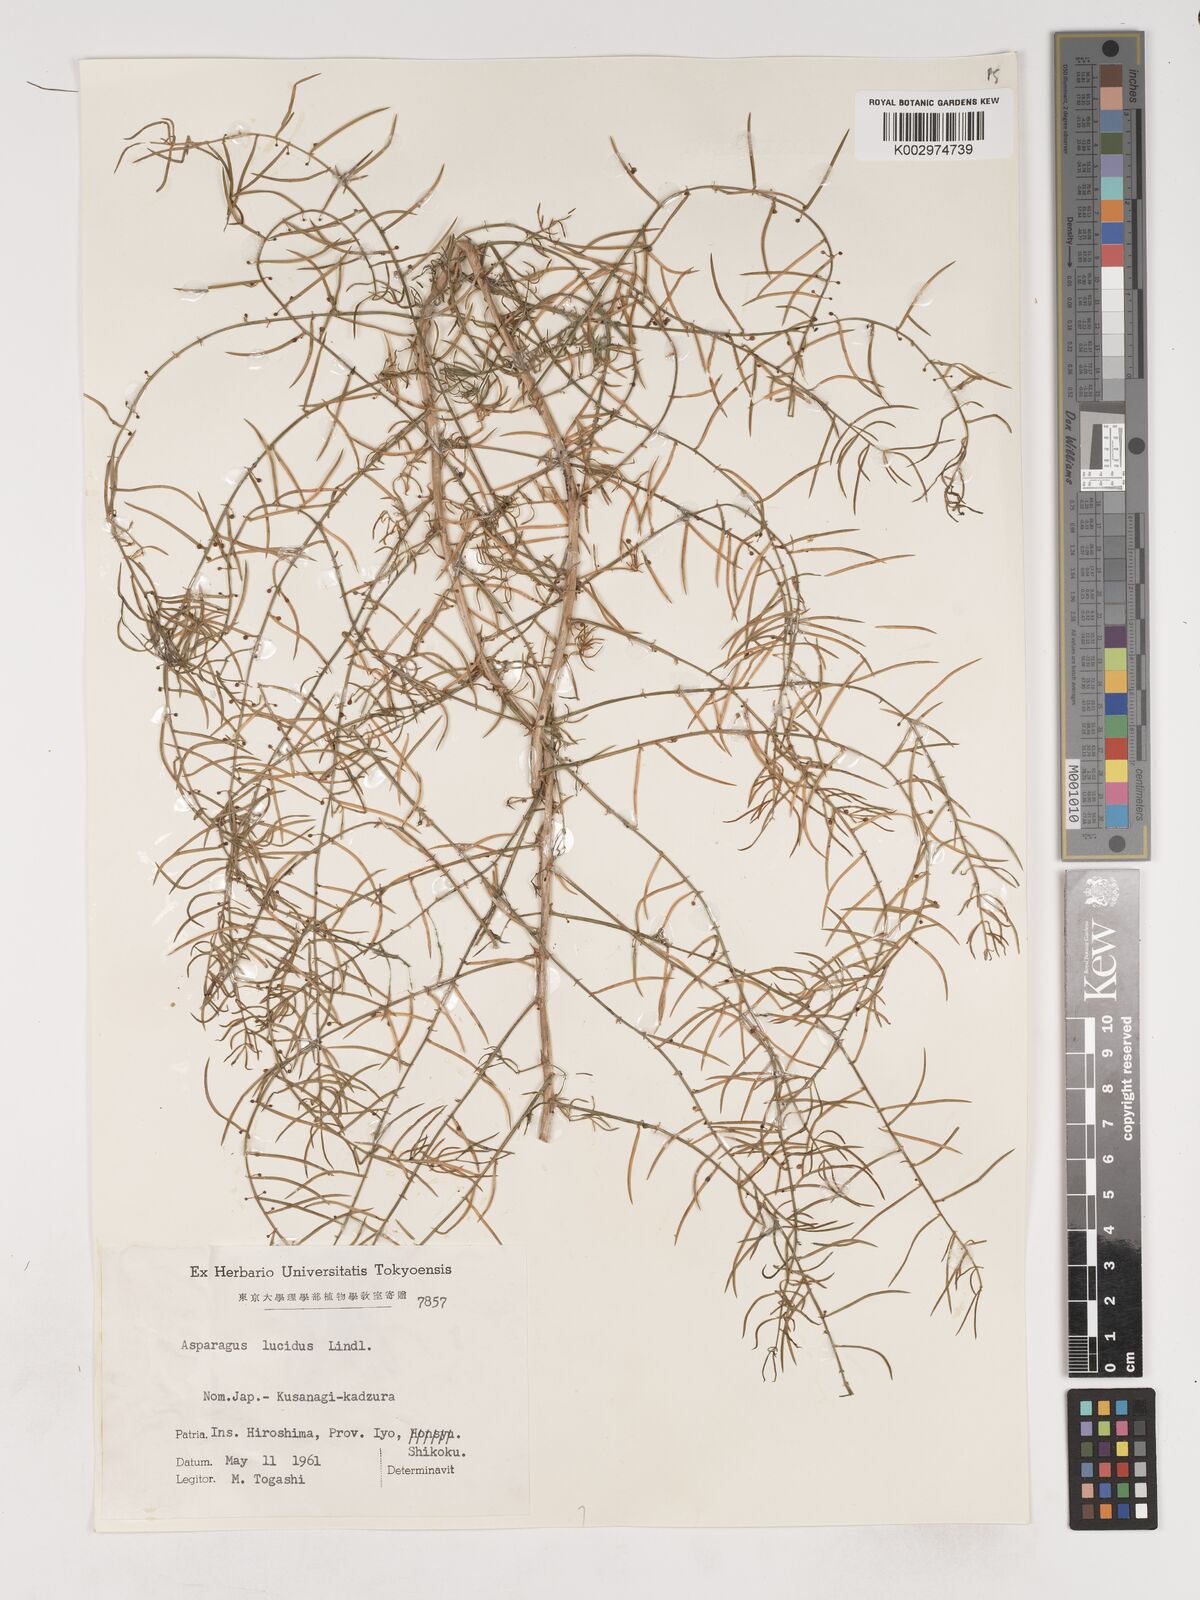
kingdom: Plantae
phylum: Tracheophyta
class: Liliopsida
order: Asparagales
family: Asparagaceae
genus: Asparagus
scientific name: Asparagus cochinchinensis
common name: Chinese asparagus
